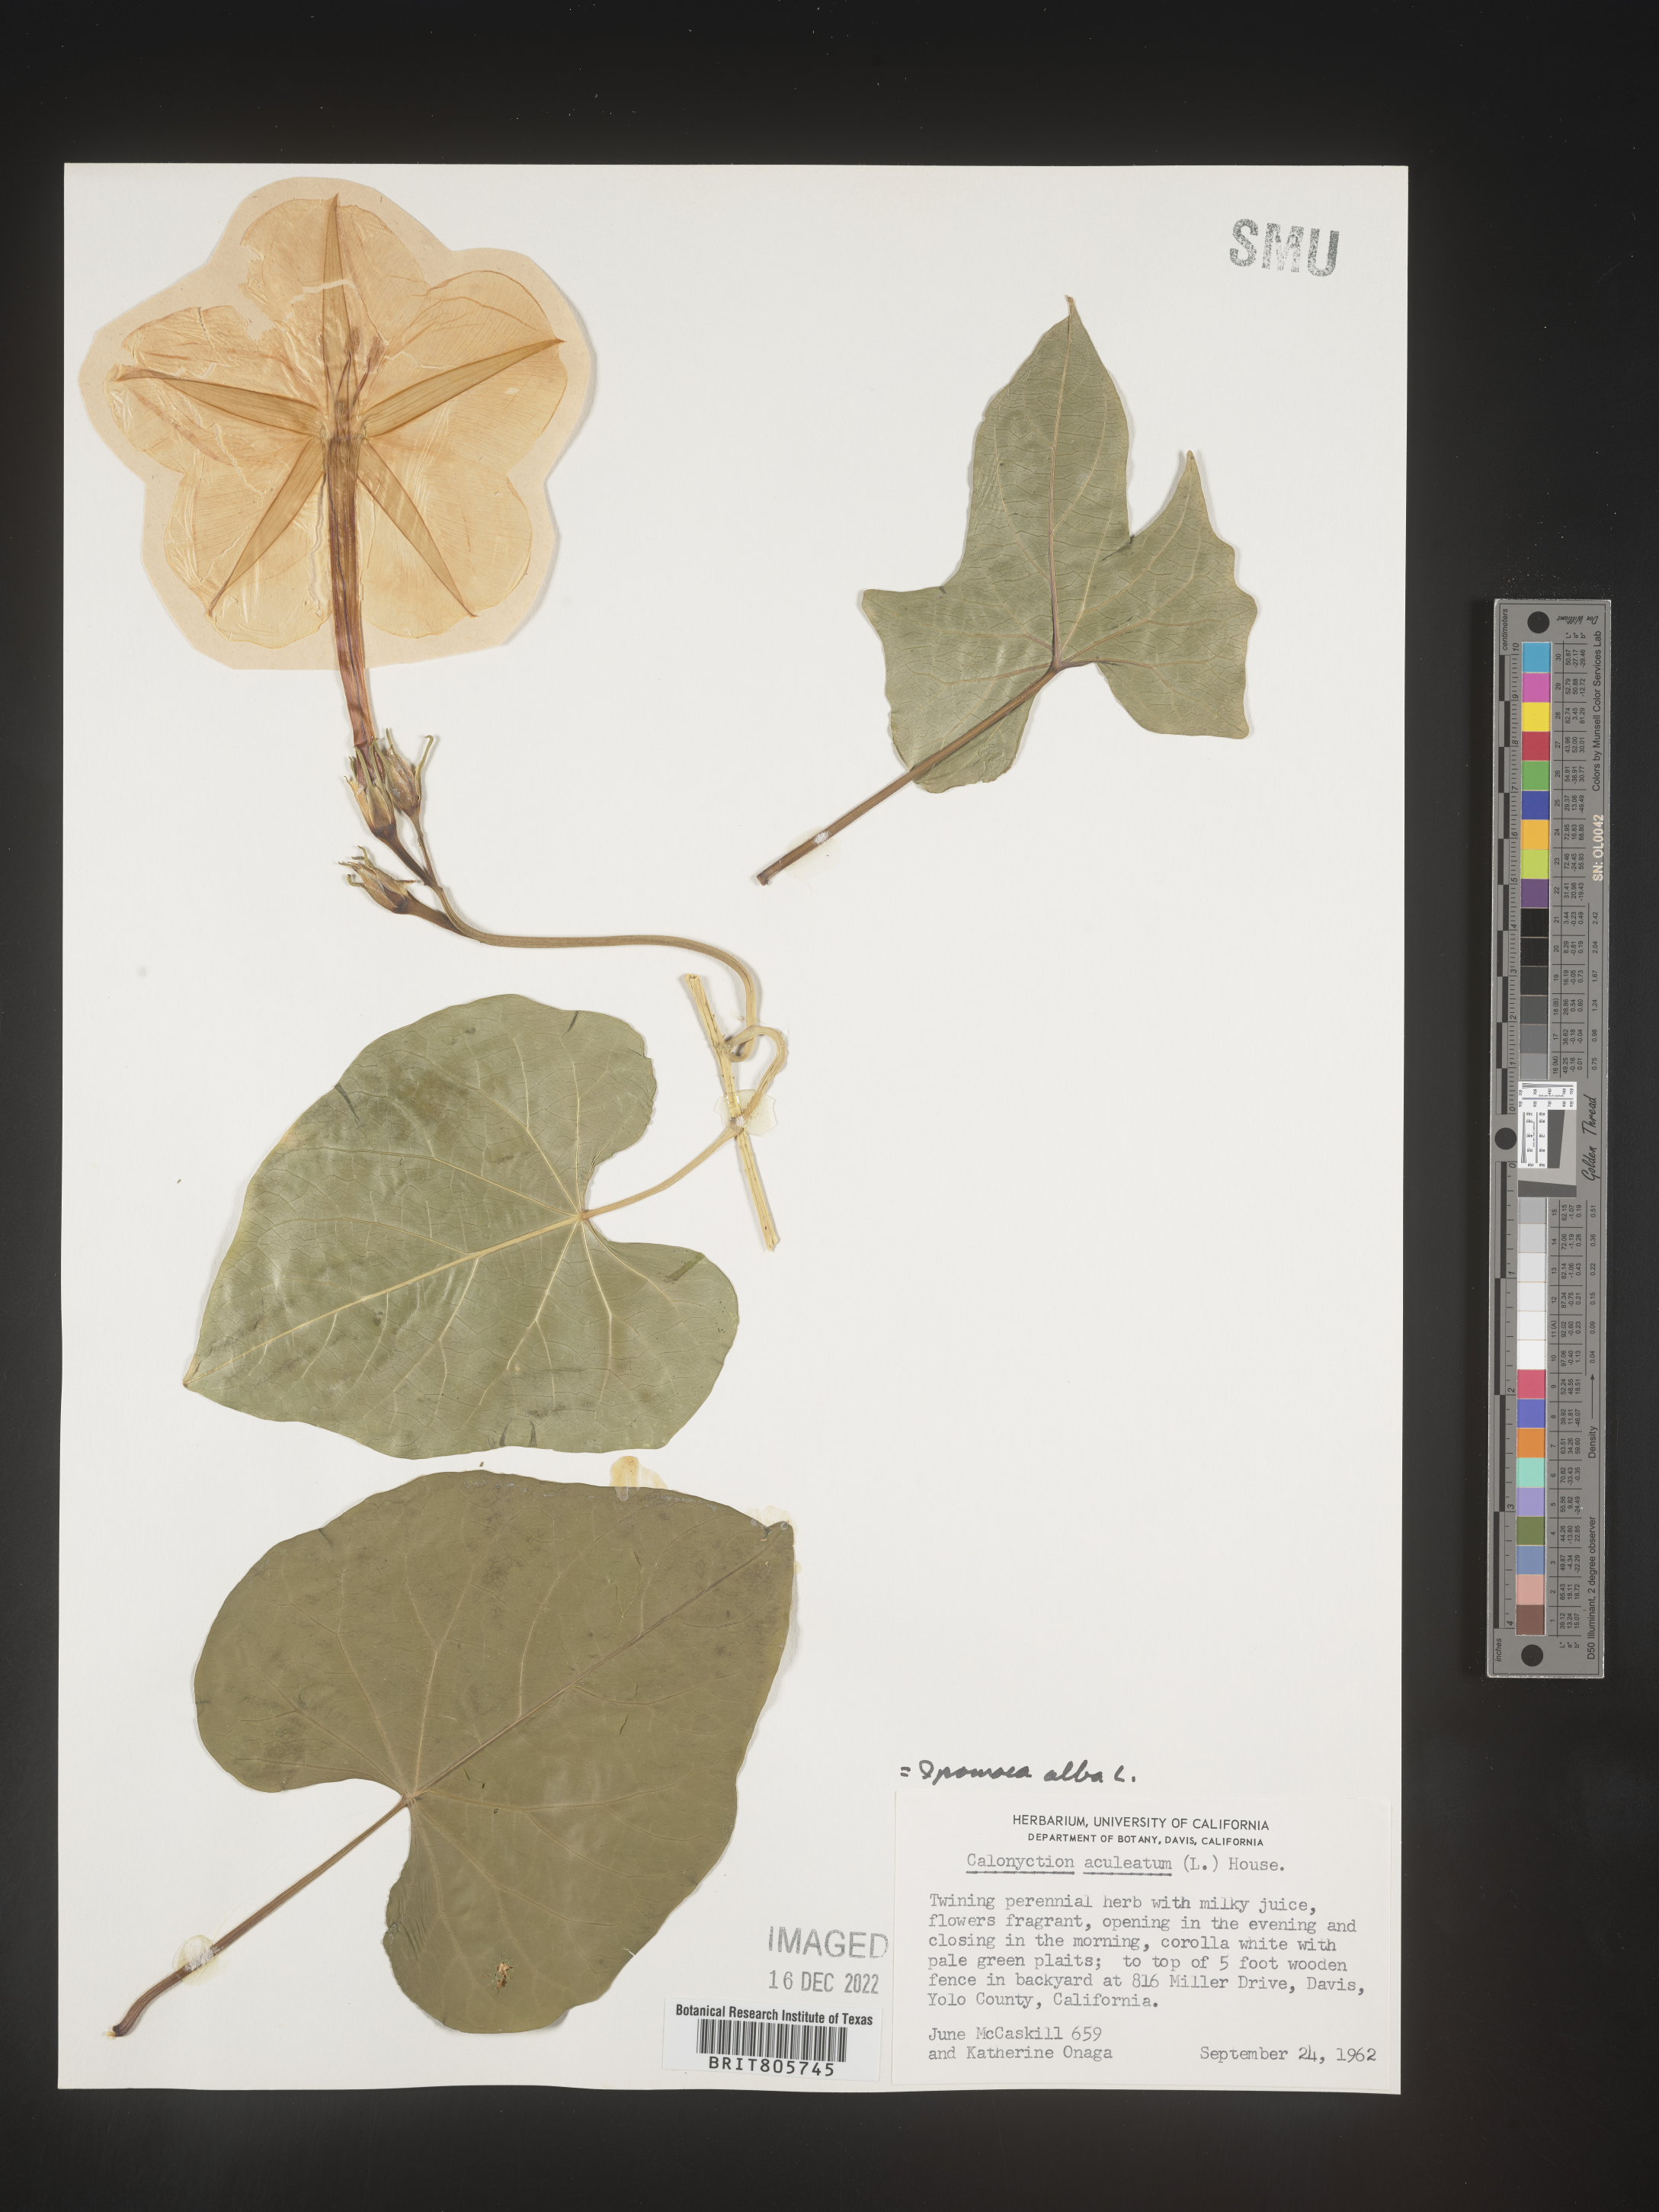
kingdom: Plantae
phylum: Tracheophyta
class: Magnoliopsida
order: Solanales
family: Convolvulaceae
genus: Ipomoea
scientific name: Ipomoea alba
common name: Moonflower
